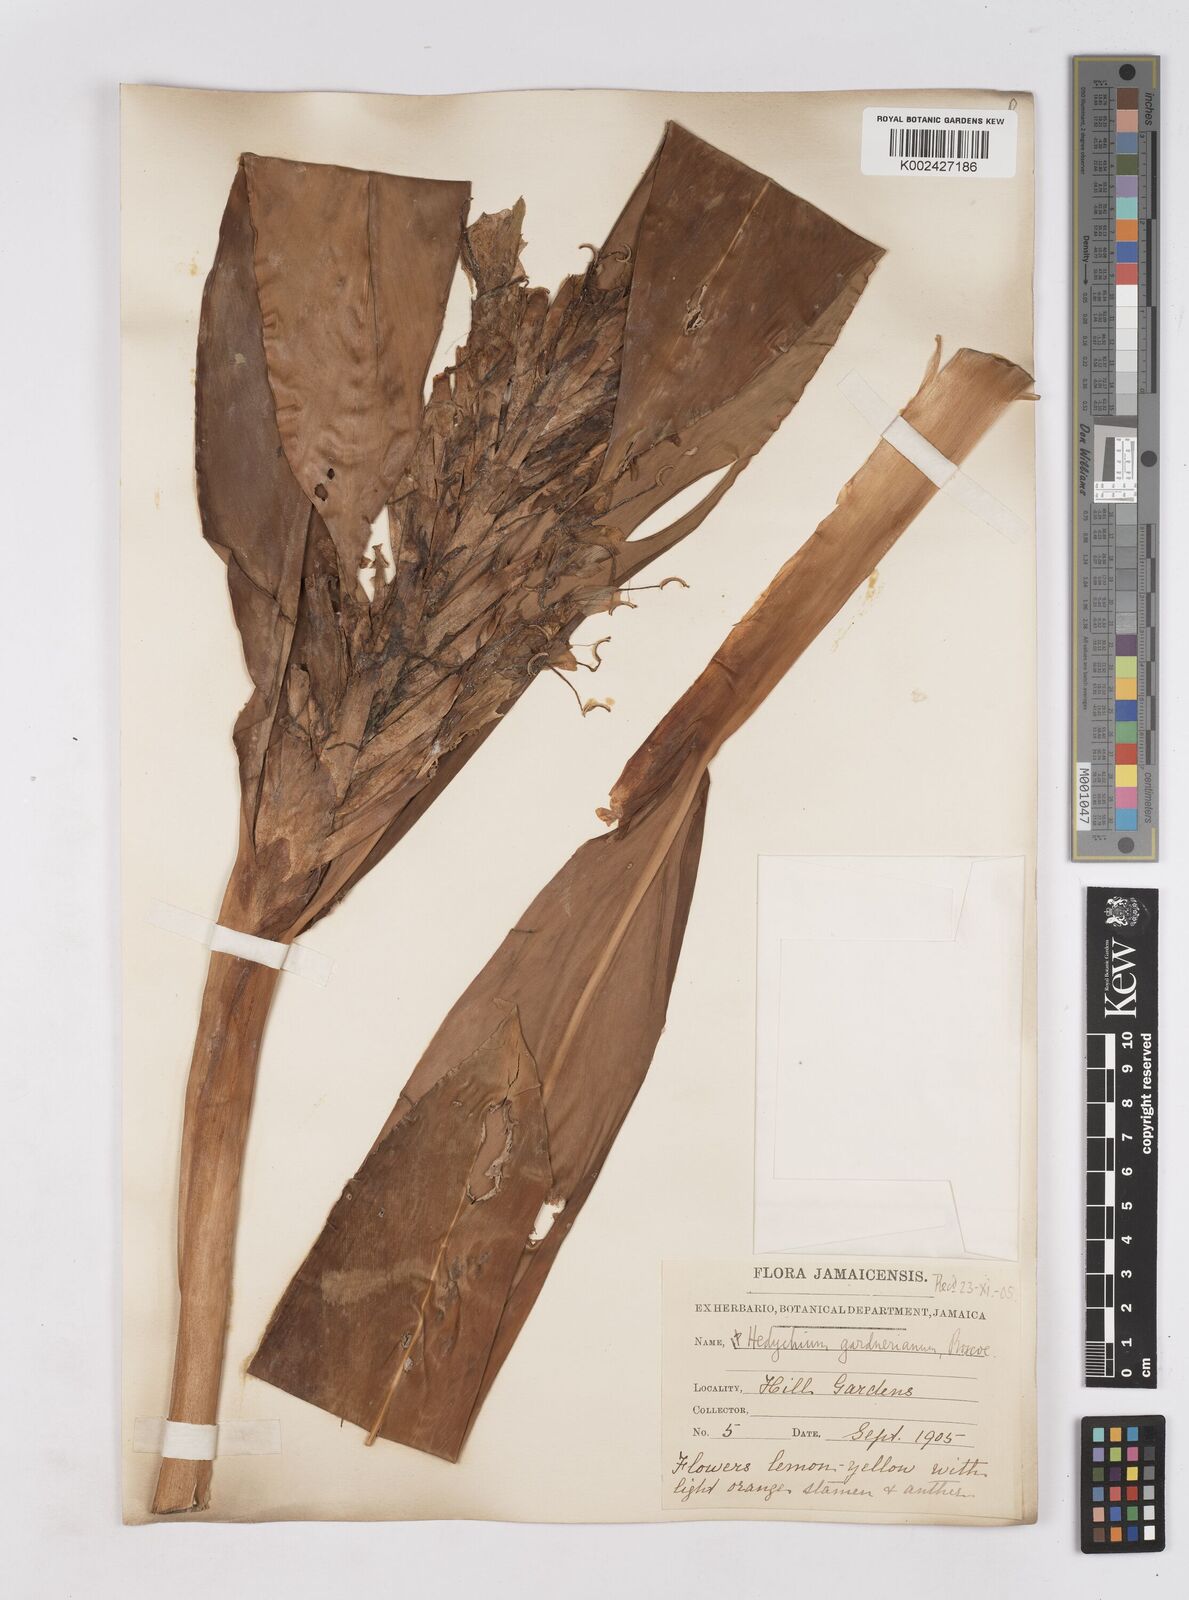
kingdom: Plantae
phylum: Tracheophyta
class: Liliopsida
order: Zingiberales
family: Zingiberaceae
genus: Hedychium
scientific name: Hedychium gardnerianum
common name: Himalayan ginger
